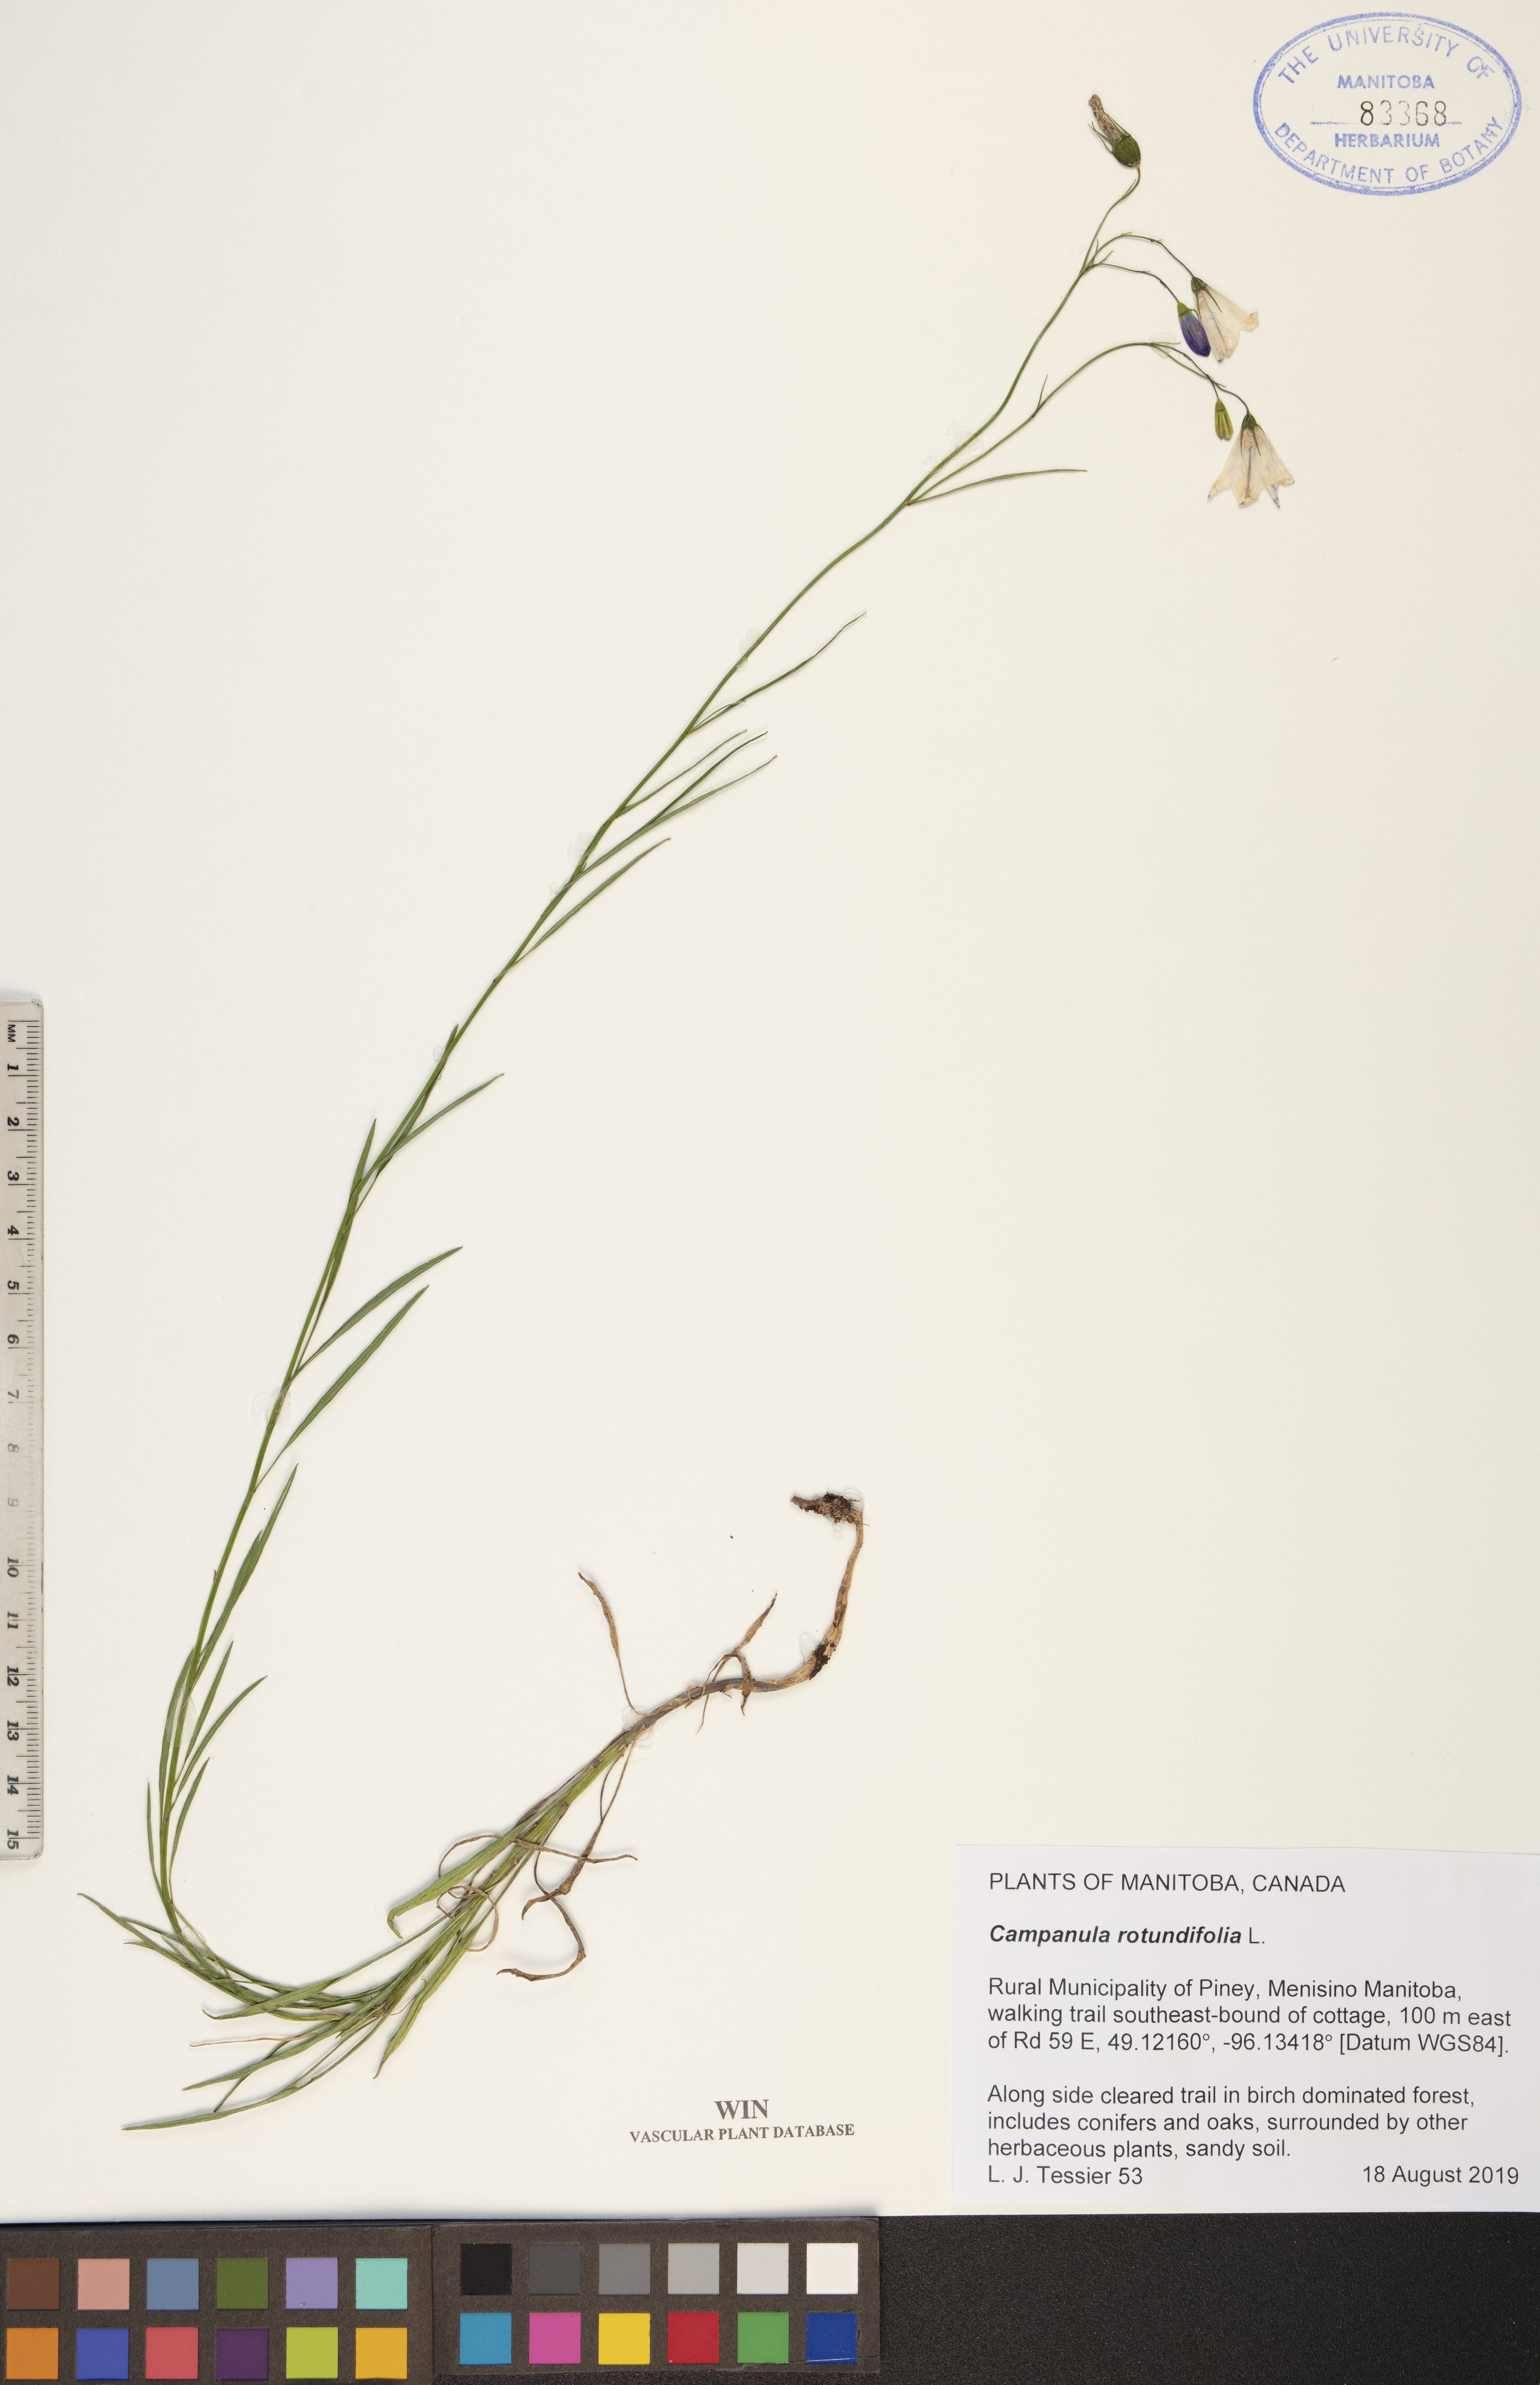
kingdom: Plantae
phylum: Tracheophyta
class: Magnoliopsida
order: Asterales
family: Campanulaceae
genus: Campanula
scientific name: Campanula rotundifolia
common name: Harebell
